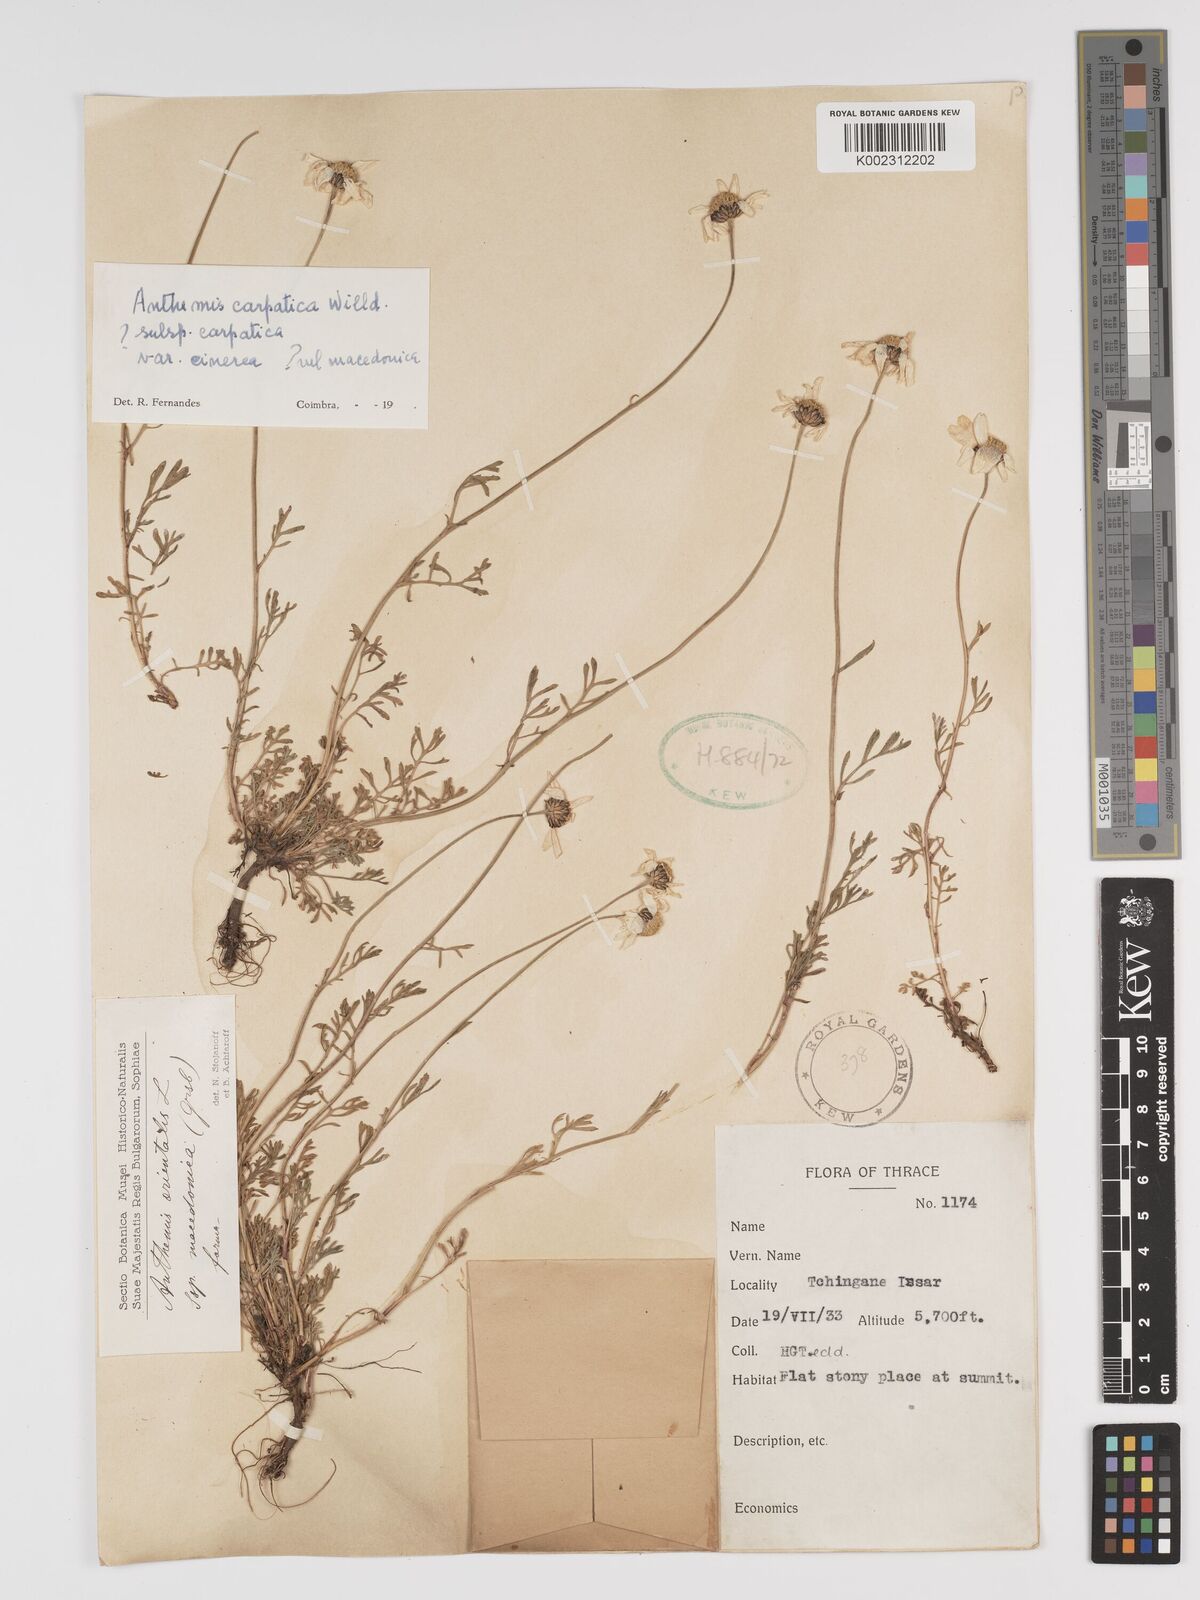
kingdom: Plantae
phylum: Tracheophyta
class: Magnoliopsida
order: Asterales
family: Asteraceae
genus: Tanacetum
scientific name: Tanacetum sinaicum
